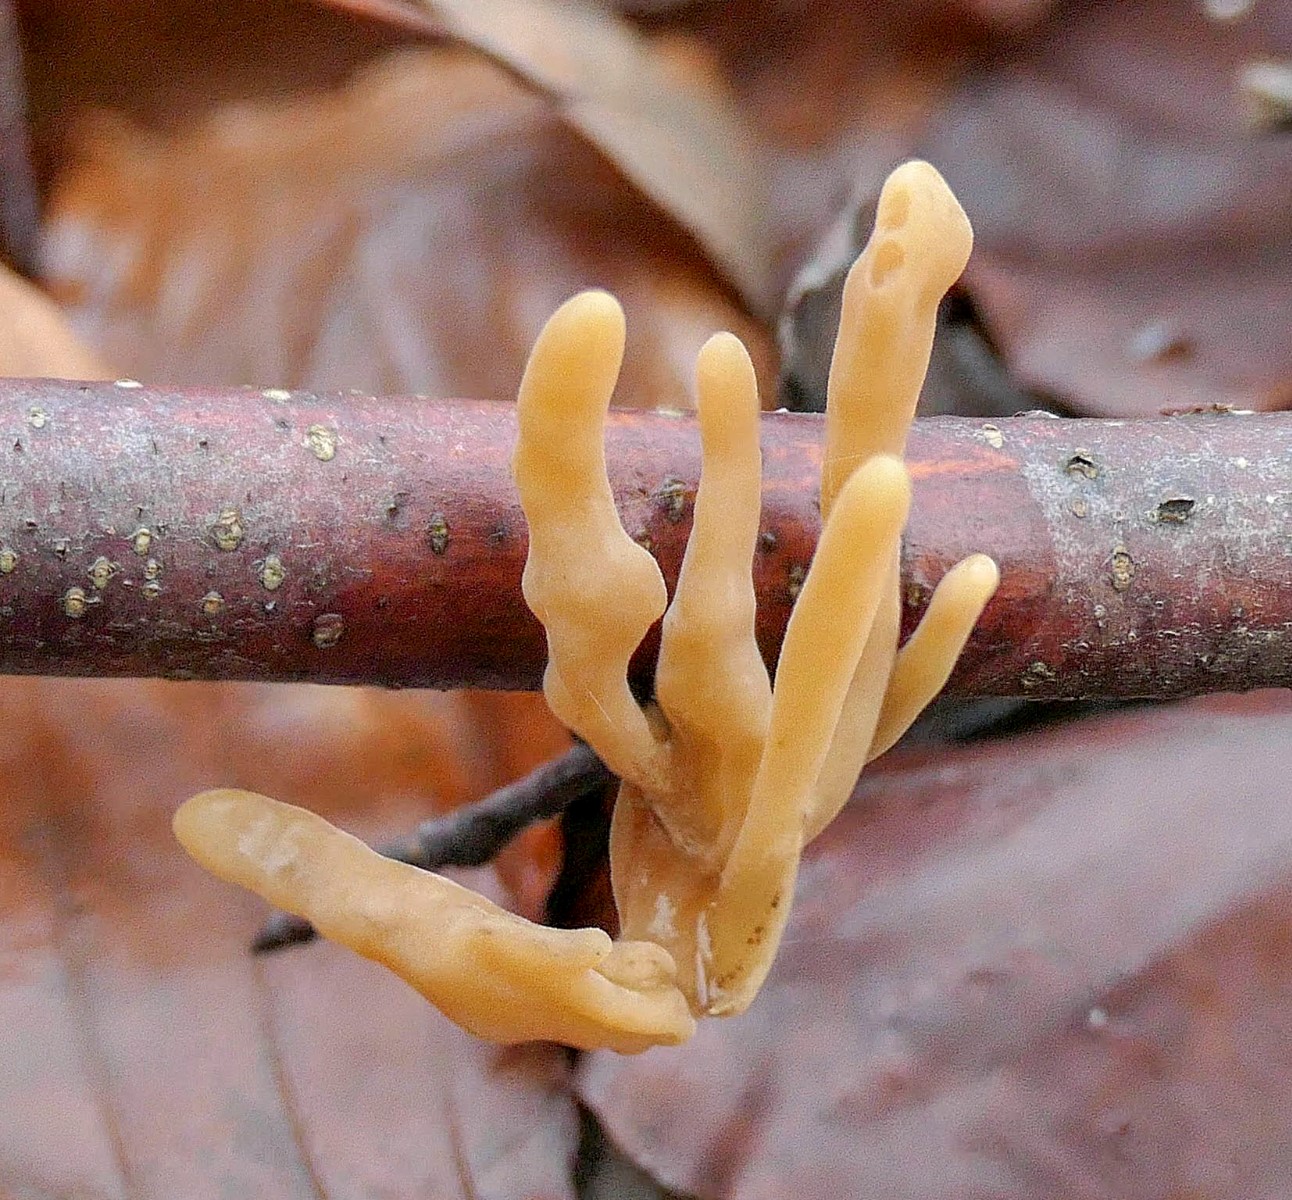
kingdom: Fungi
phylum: Basidiomycota
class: Agaricomycetes
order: Agaricales
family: Typhulaceae
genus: Typhula
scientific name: Typhula contorta
